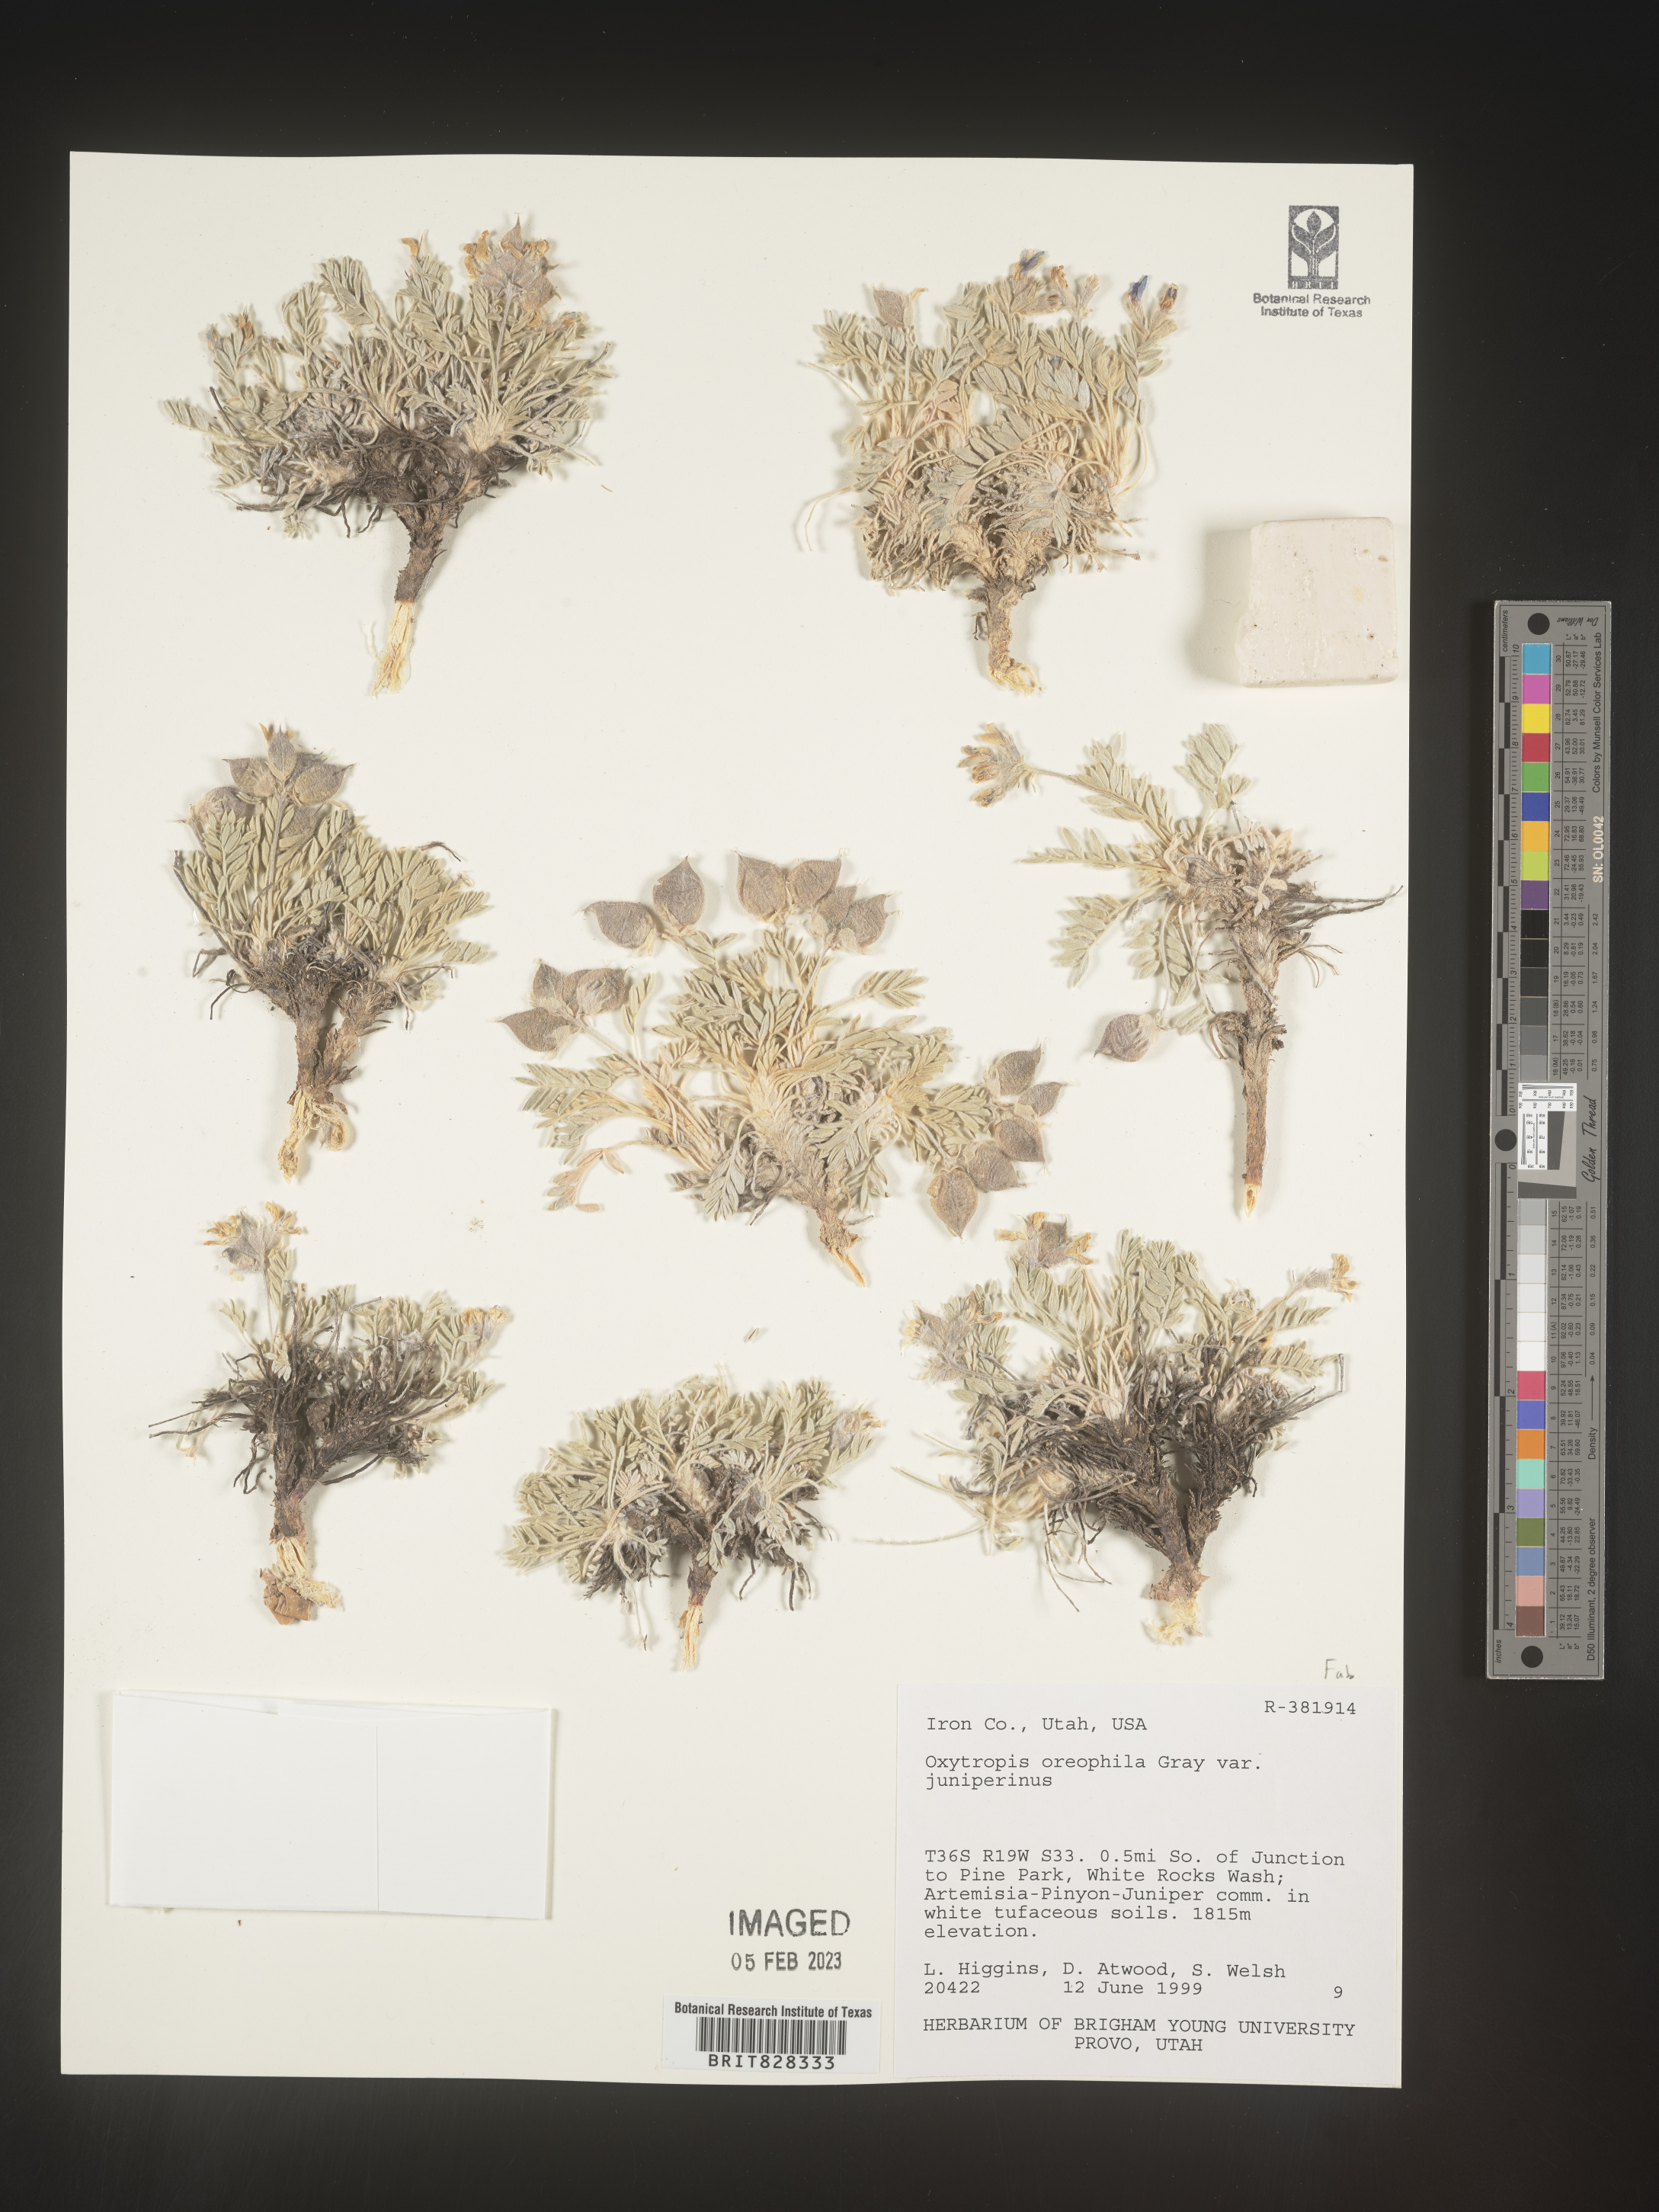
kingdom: Plantae
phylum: Tracheophyta
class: Magnoliopsida
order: Fabales
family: Fabaceae
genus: Oxytropis
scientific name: Oxytropis
